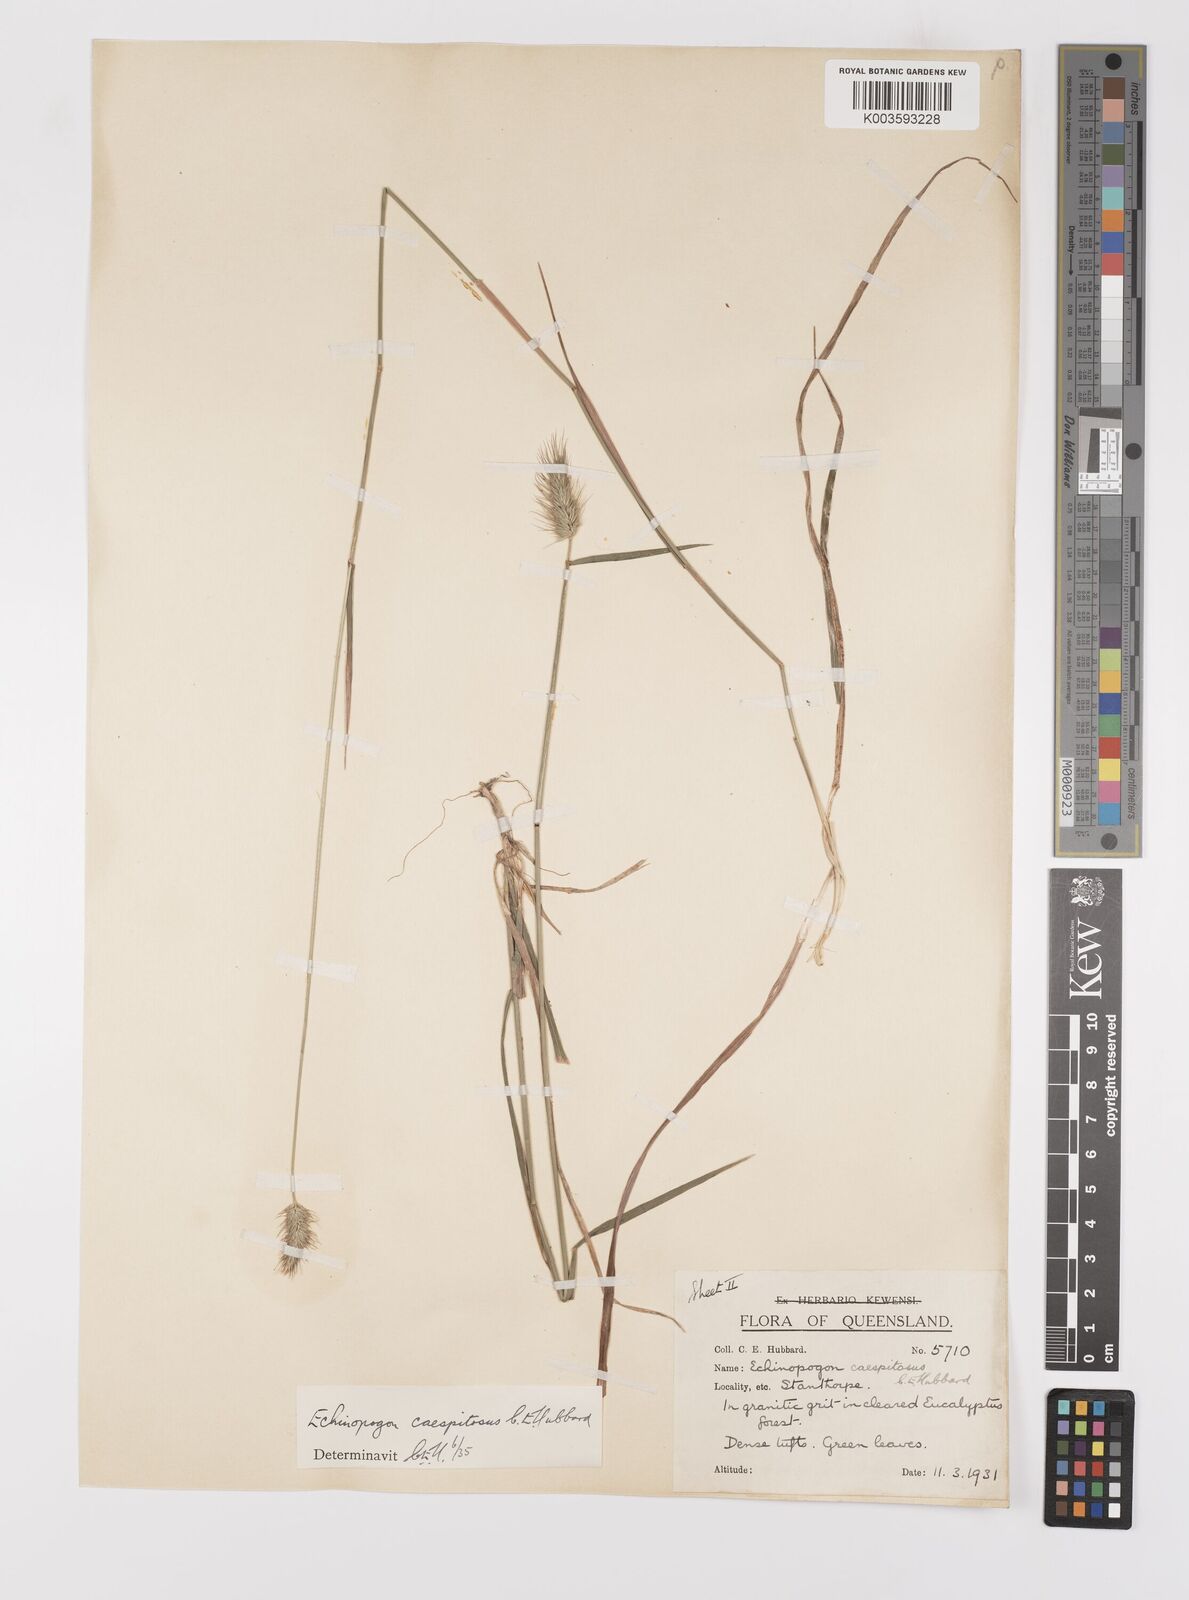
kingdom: Plantae
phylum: Tracheophyta
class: Liliopsida
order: Poales
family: Poaceae
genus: Echinopogon
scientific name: Echinopogon caespitosus
